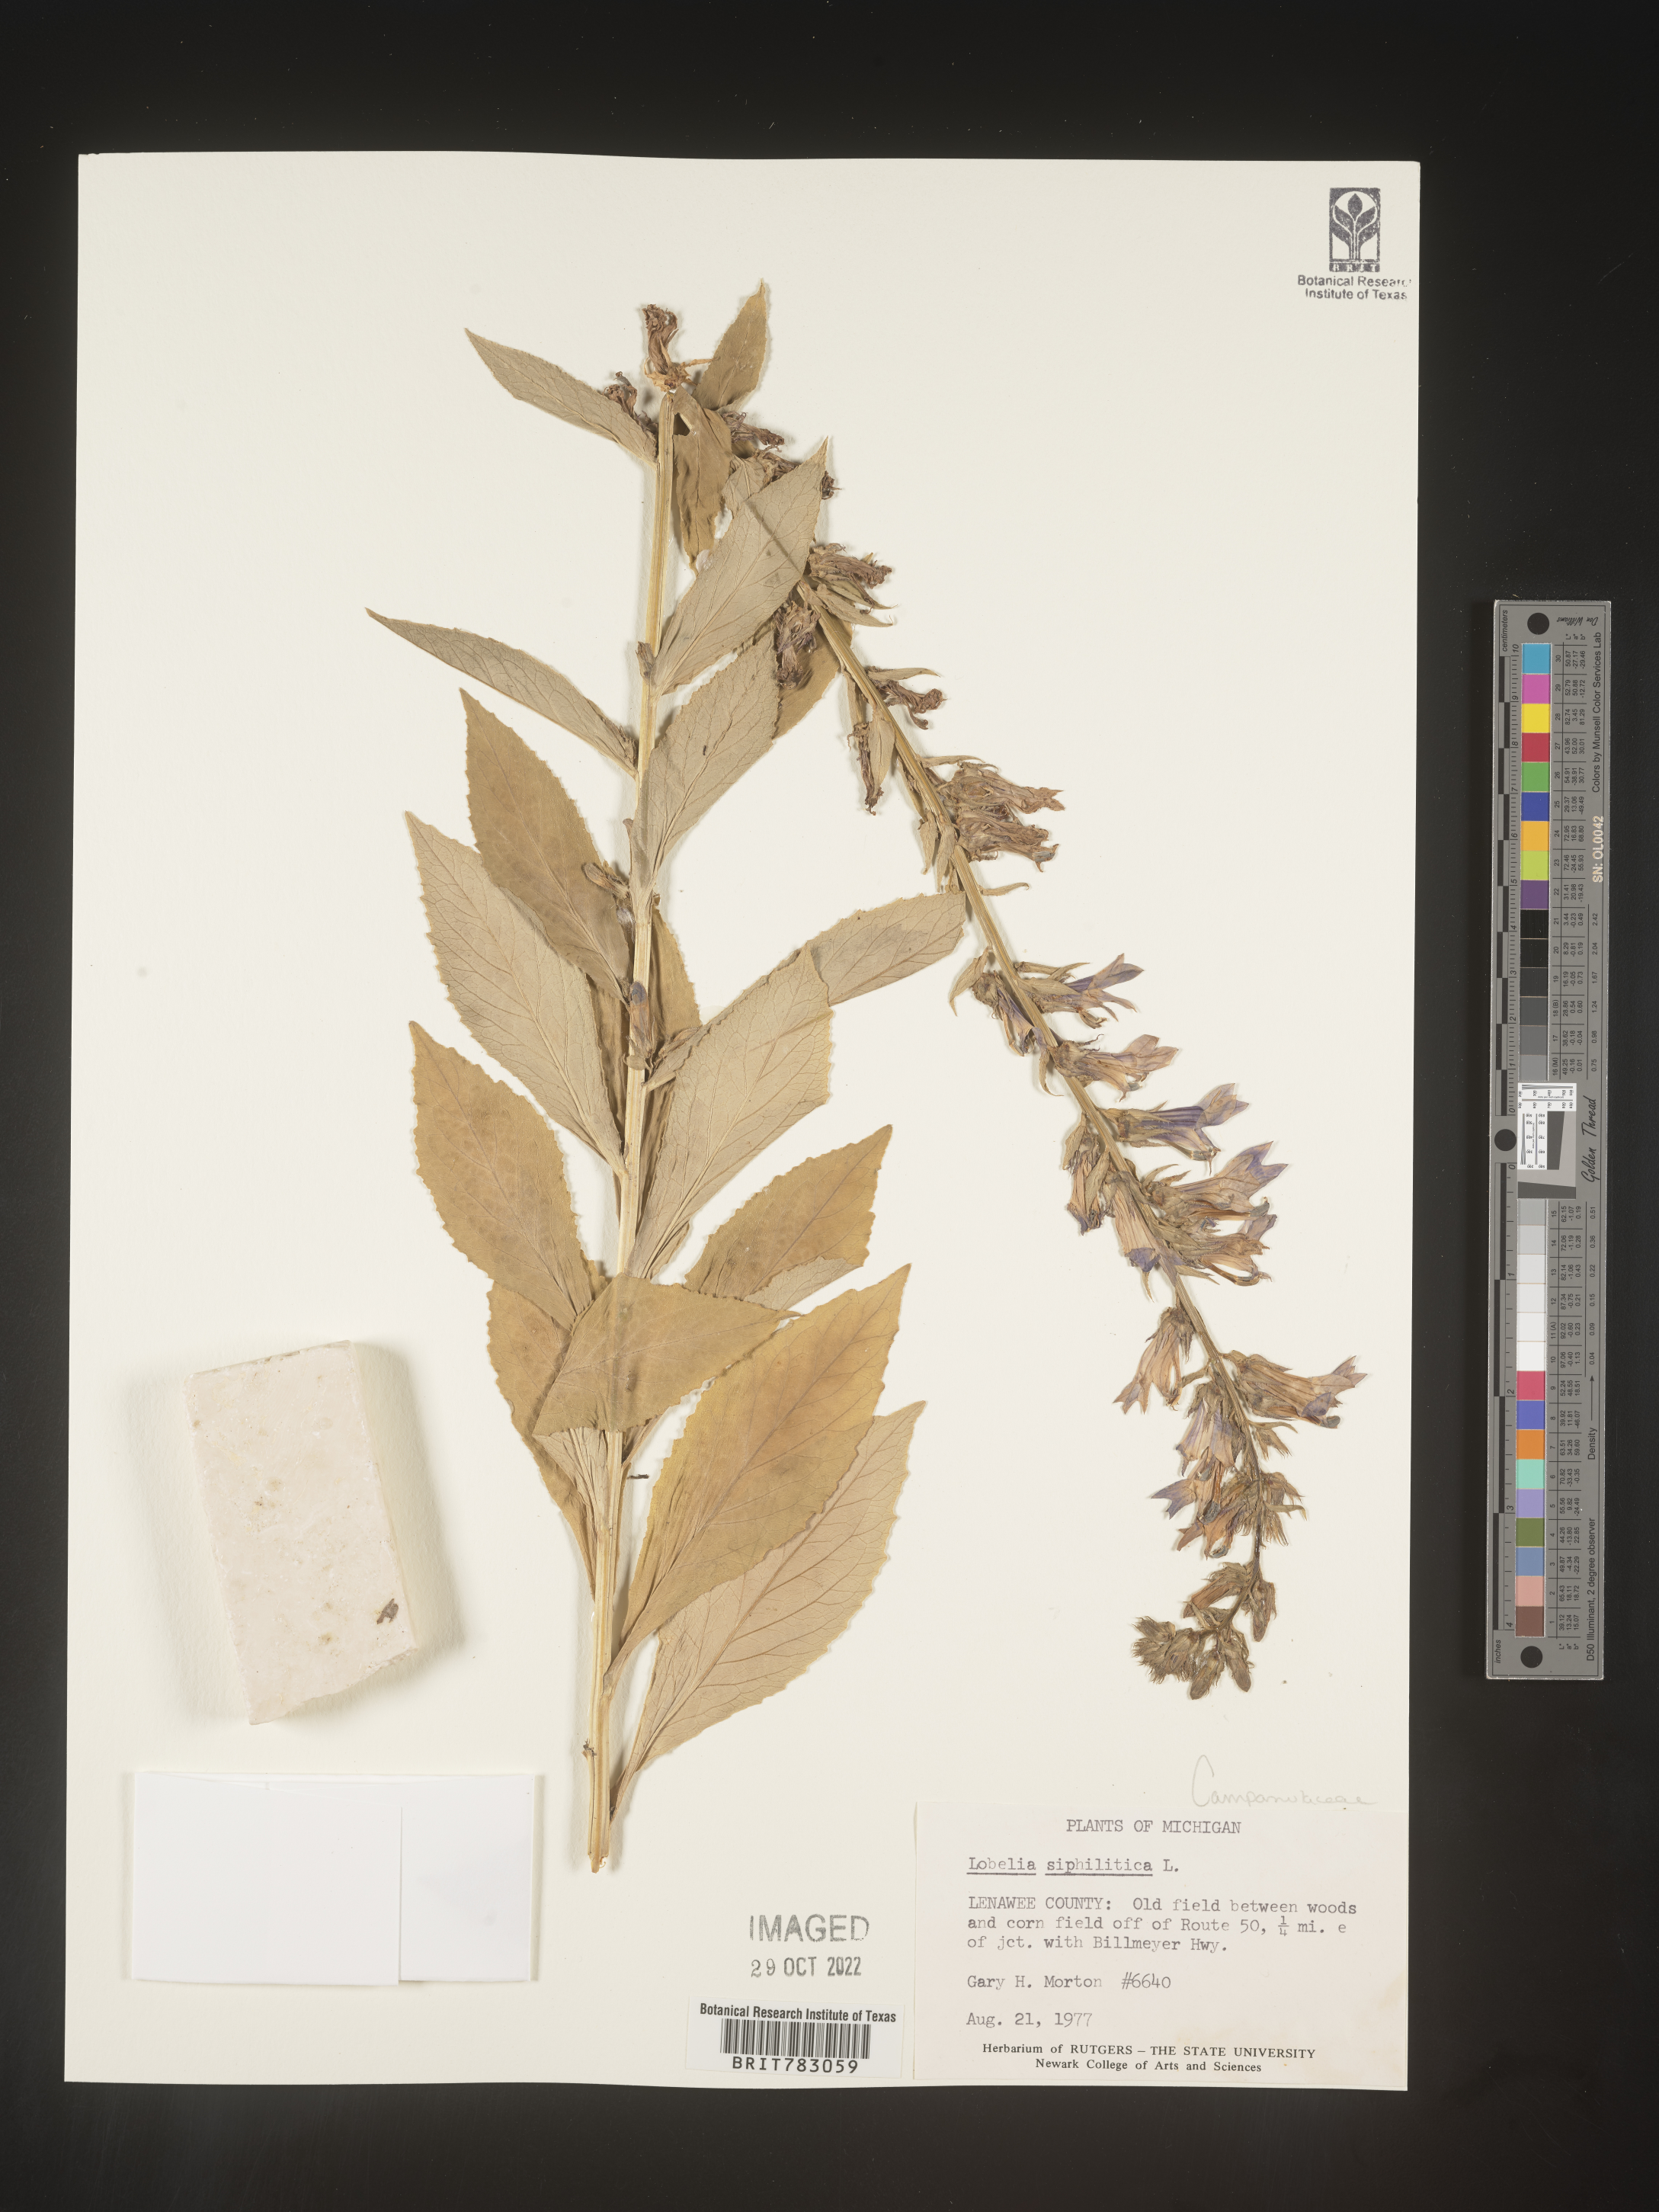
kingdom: Plantae
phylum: Tracheophyta
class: Magnoliopsida
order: Asterales
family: Campanulaceae
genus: Lobelia
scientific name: Lobelia siphilitica
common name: Great lobelia
